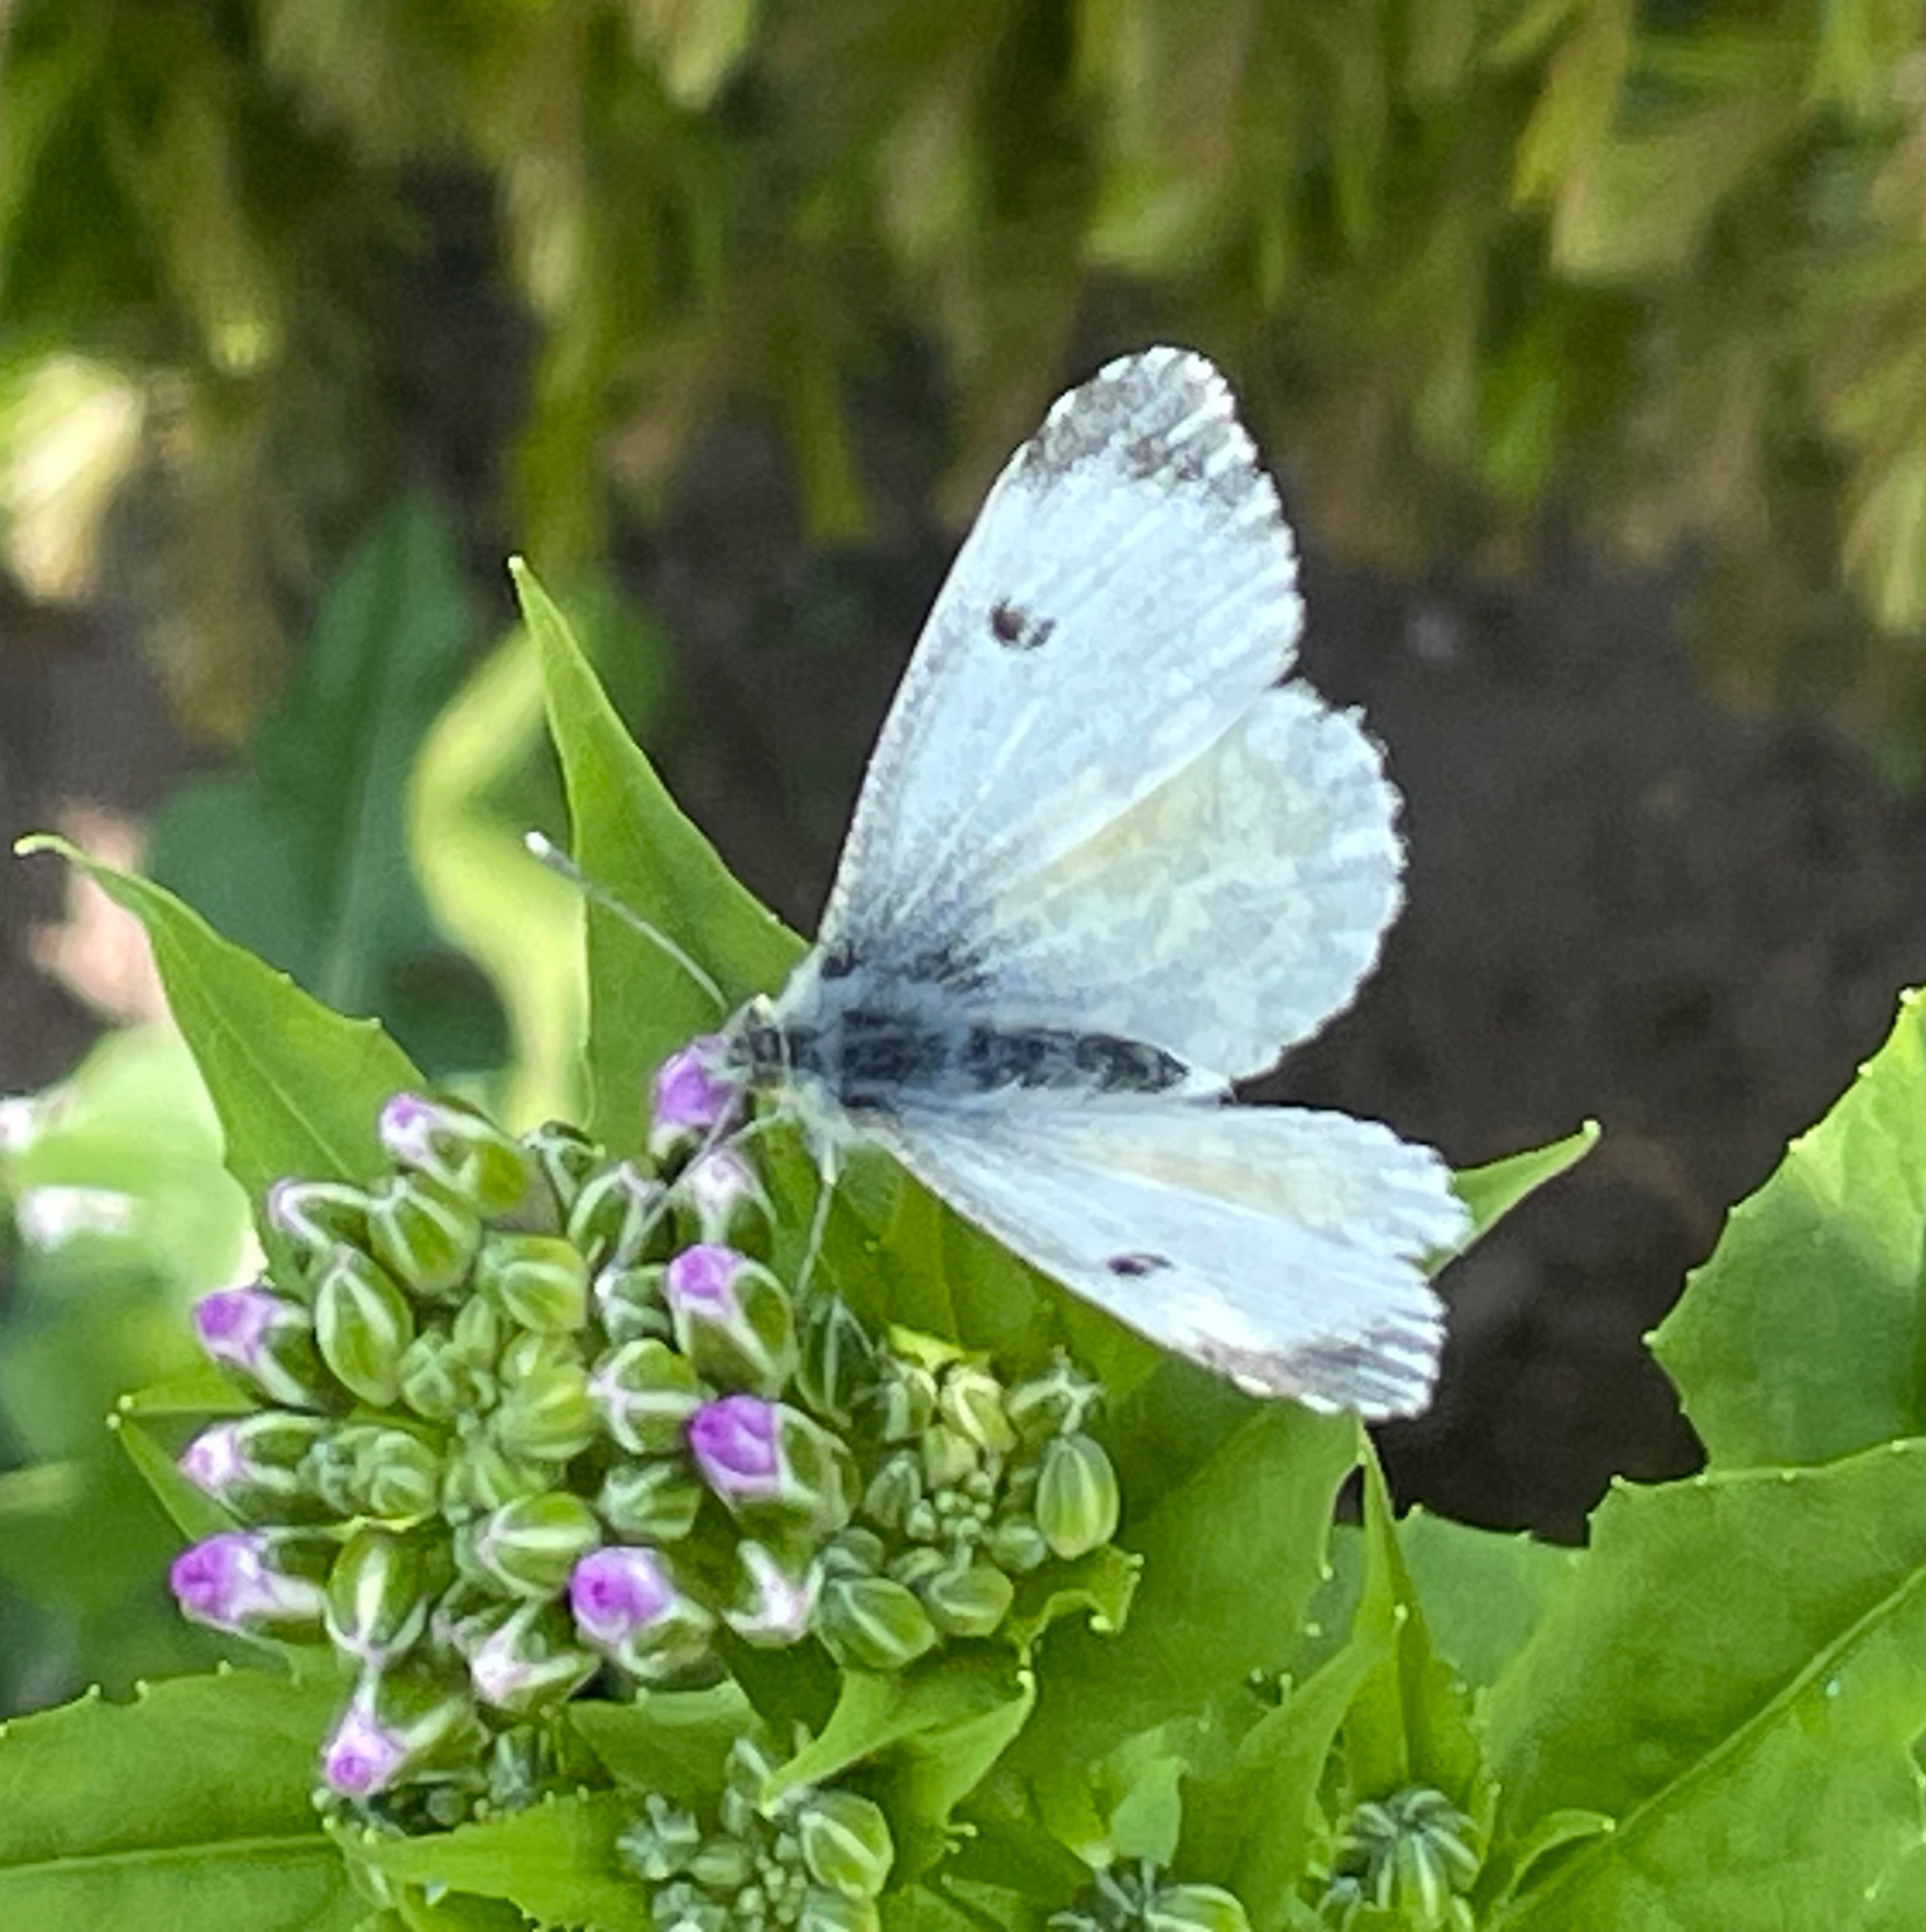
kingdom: Animalia
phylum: Arthropoda
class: Insecta
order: Lepidoptera
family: Pieridae
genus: Anthocharis
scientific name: Anthocharis cardamines
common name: Aurora
